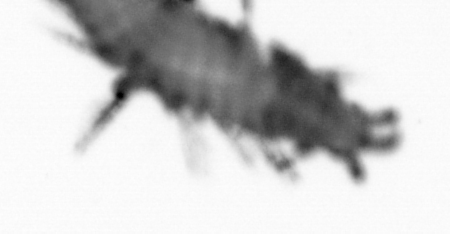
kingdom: Animalia
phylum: Annelida
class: Polychaeta
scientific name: Polychaeta
